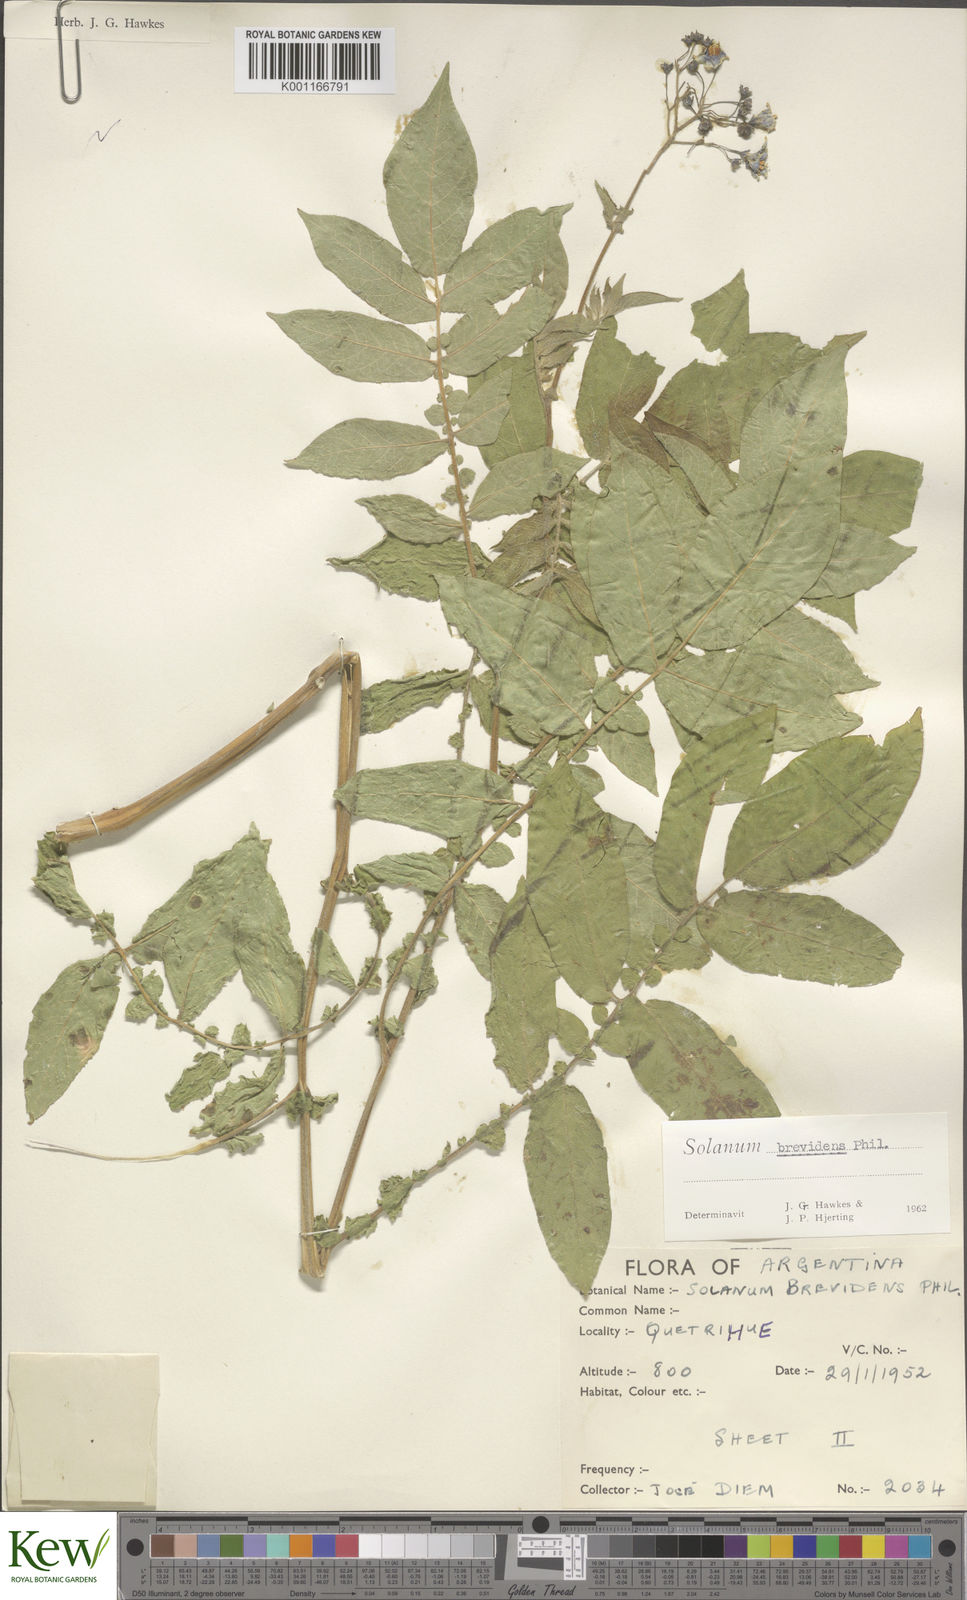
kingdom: Plantae
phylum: Tracheophyta
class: Magnoliopsida
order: Solanales
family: Solanaceae
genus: Solanum
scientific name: Solanum palustre
